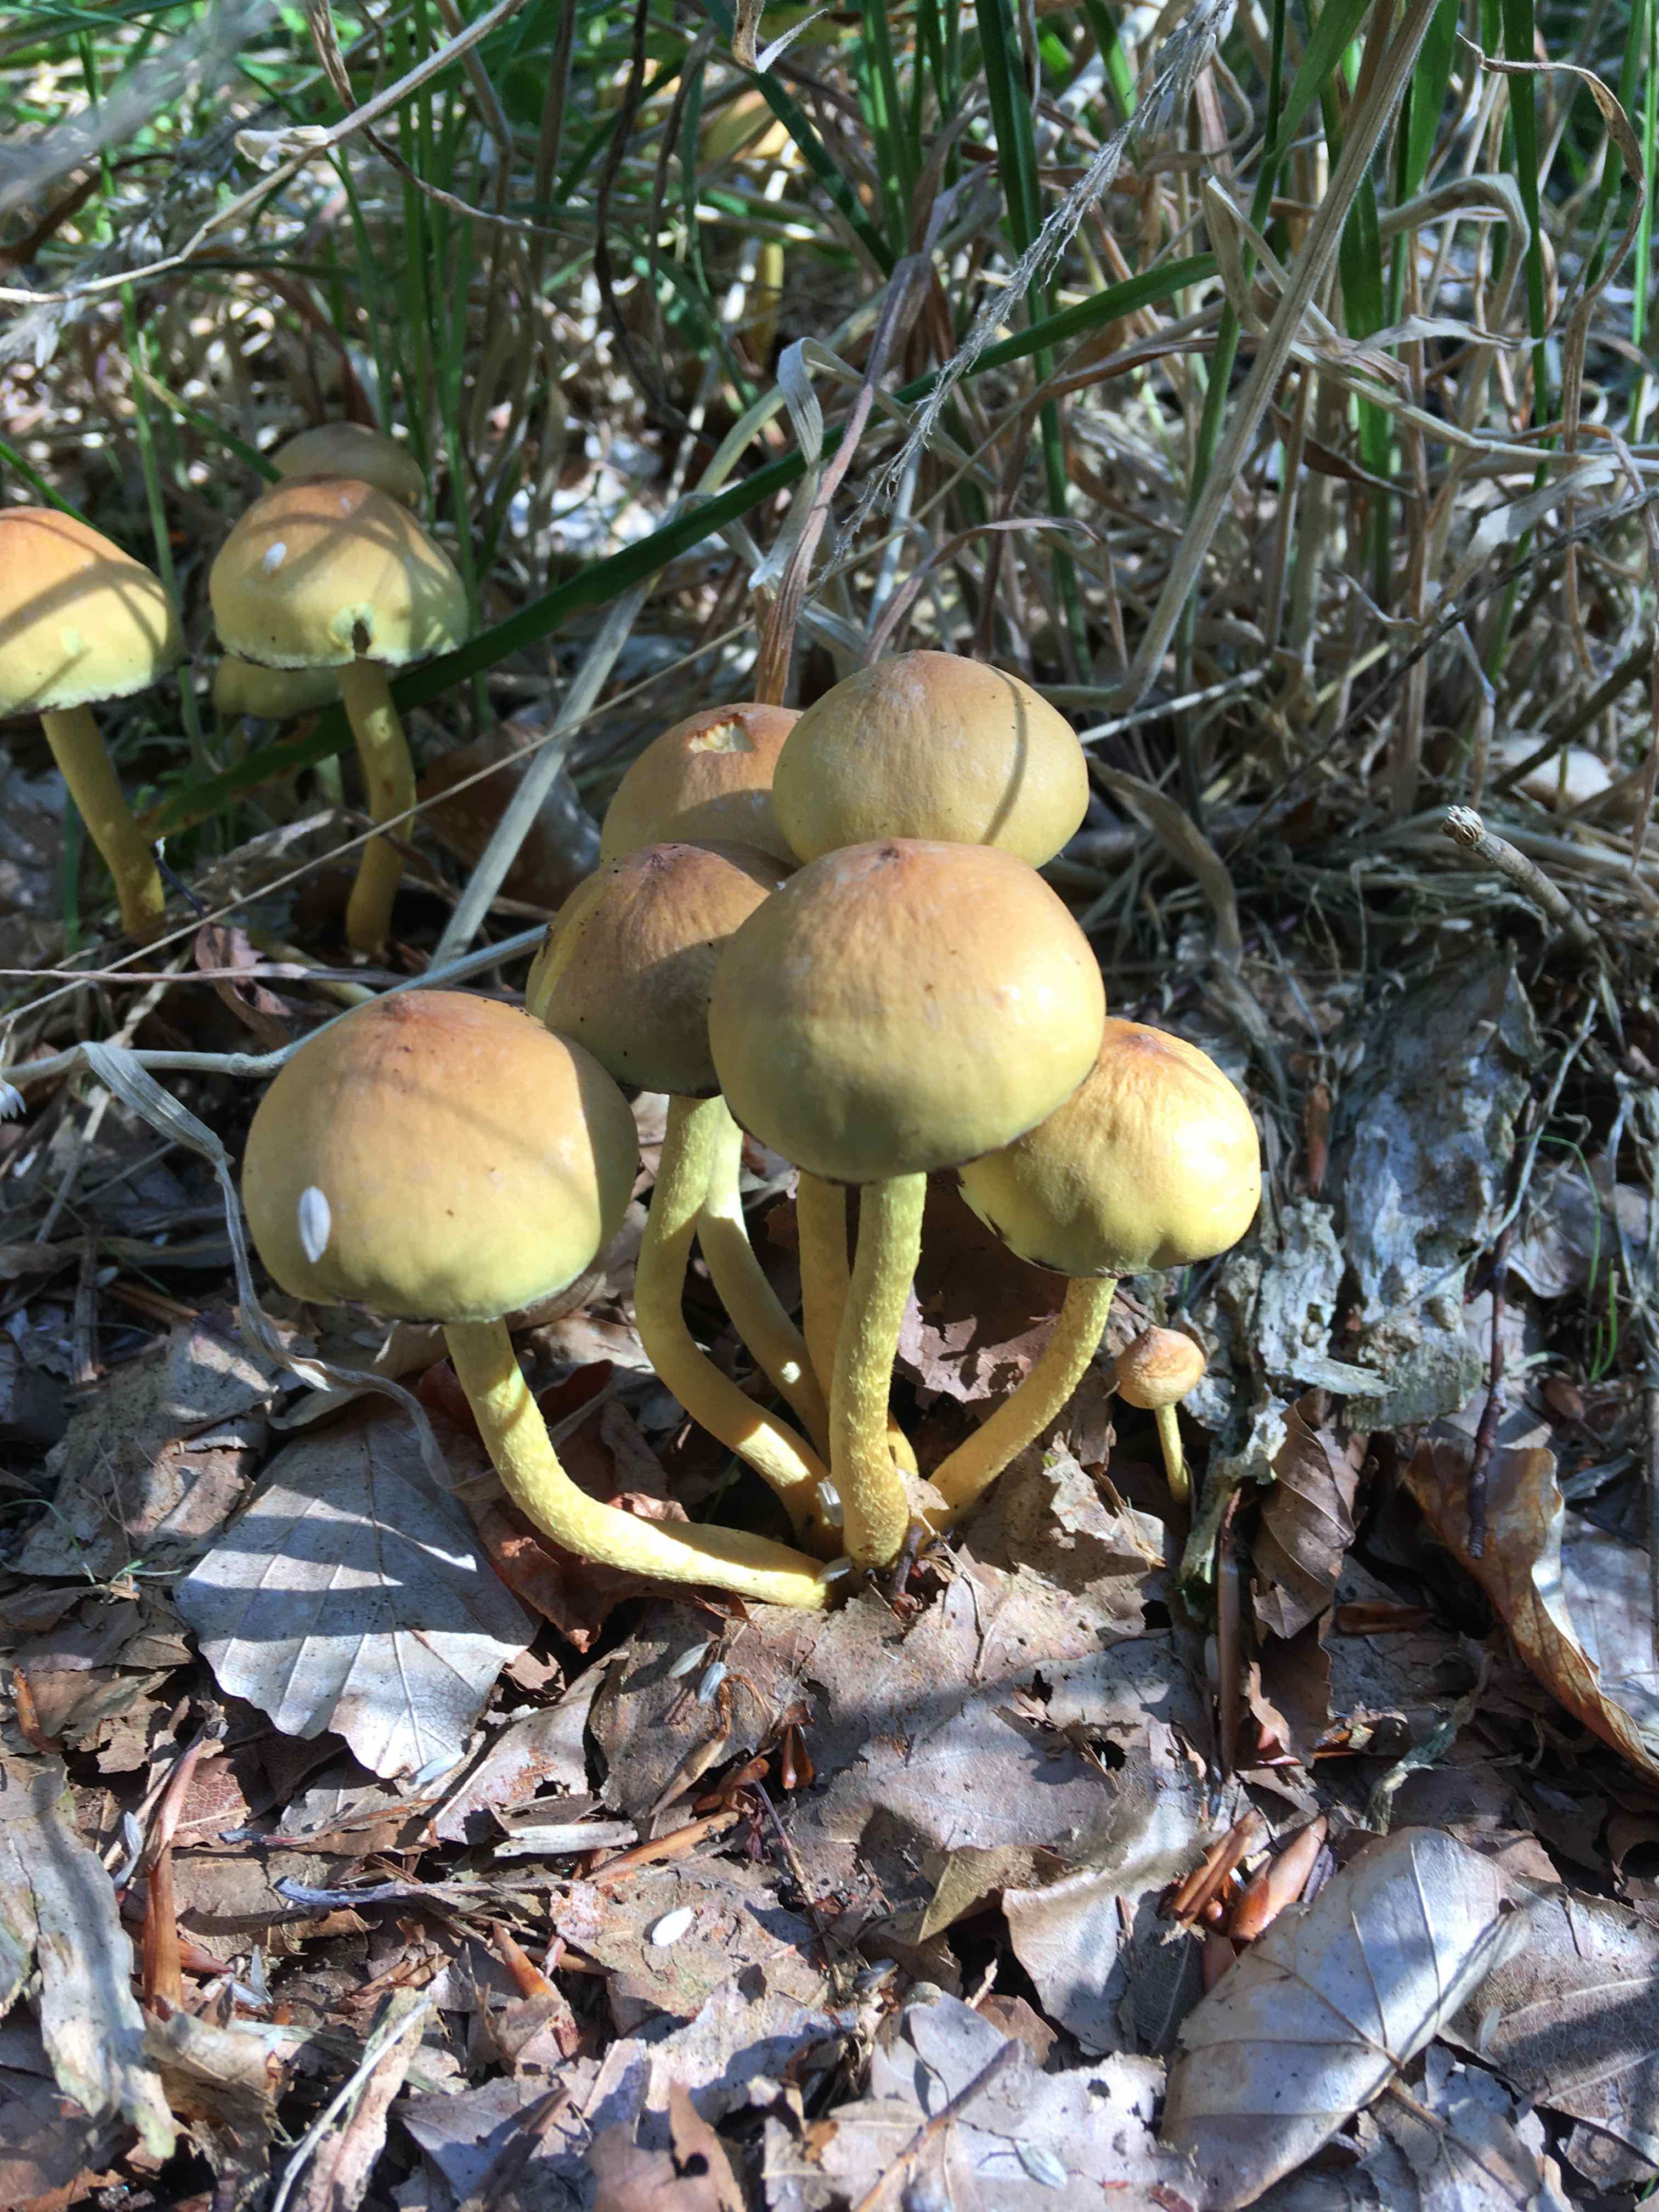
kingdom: Fungi
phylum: Basidiomycota
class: Agaricomycetes
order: Agaricales
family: Strophariaceae
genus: Hypholoma
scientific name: Hypholoma fasciculare
